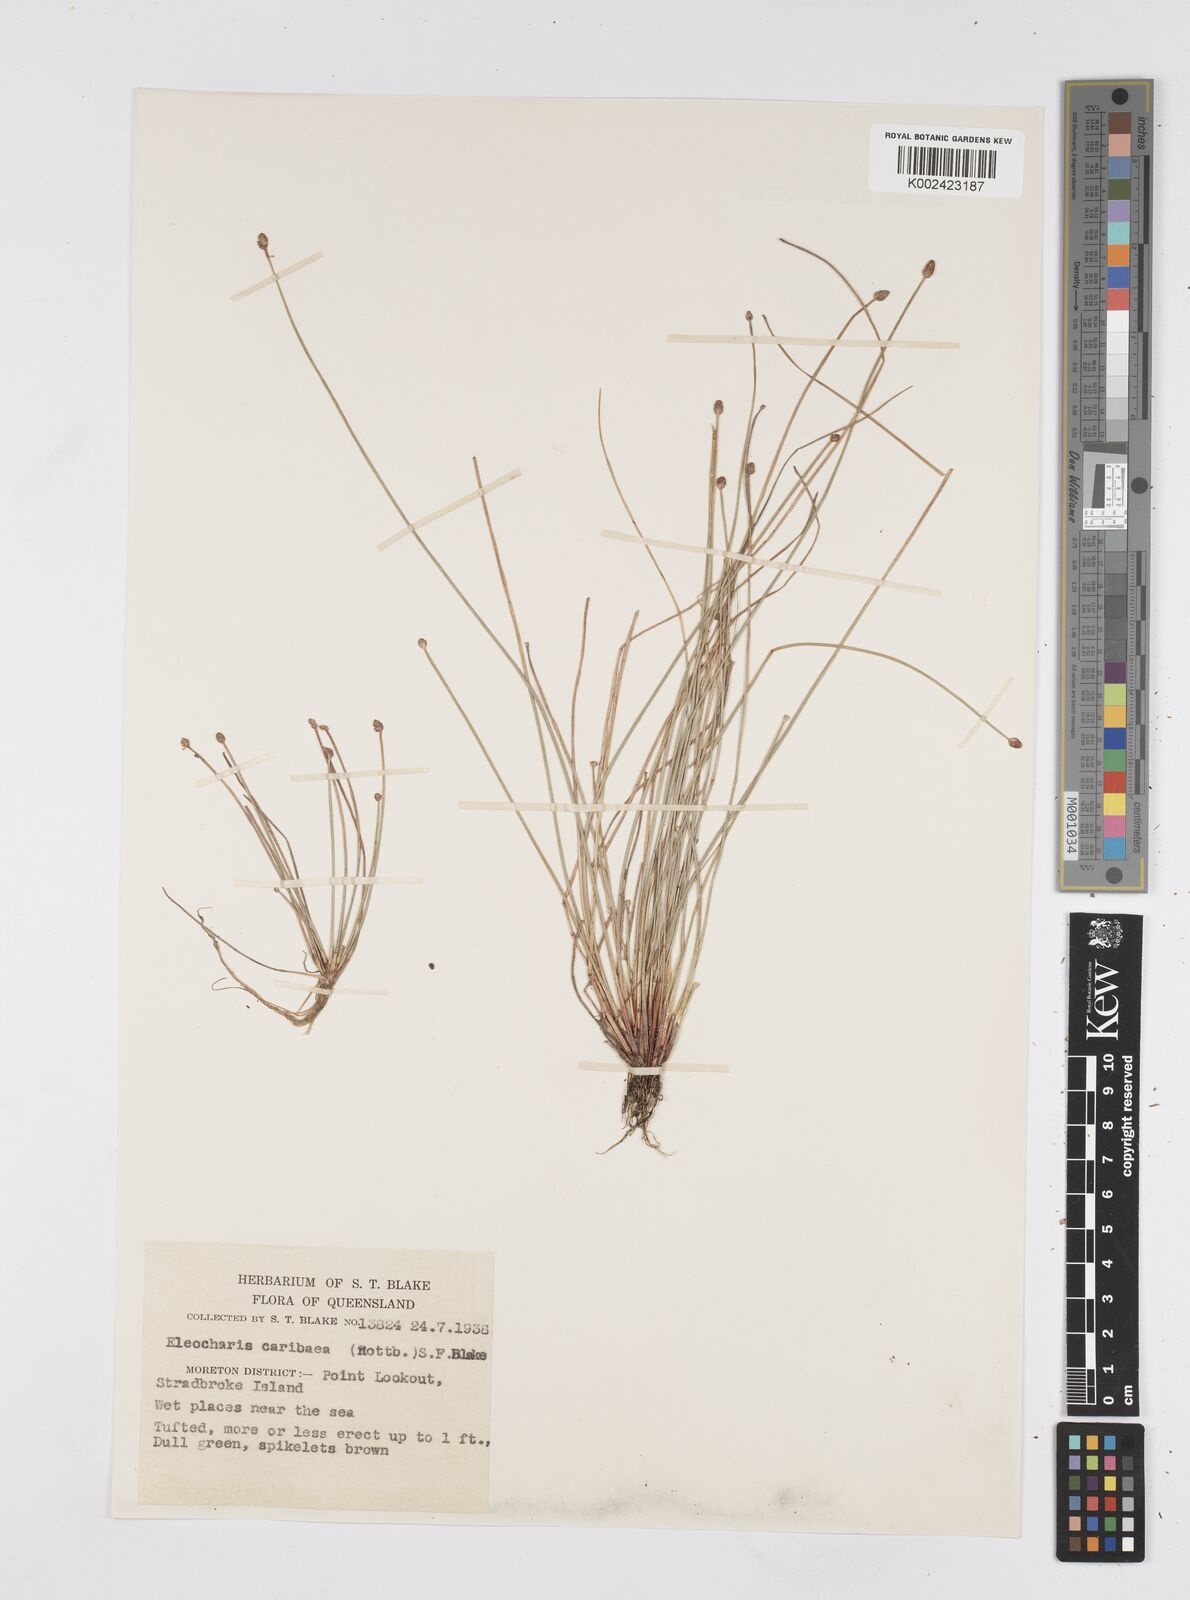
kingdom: Plantae
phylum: Tracheophyta
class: Liliopsida
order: Poales
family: Cyperaceae
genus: Eleocharis
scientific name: Eleocharis geniculata
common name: Canada spikesedge
